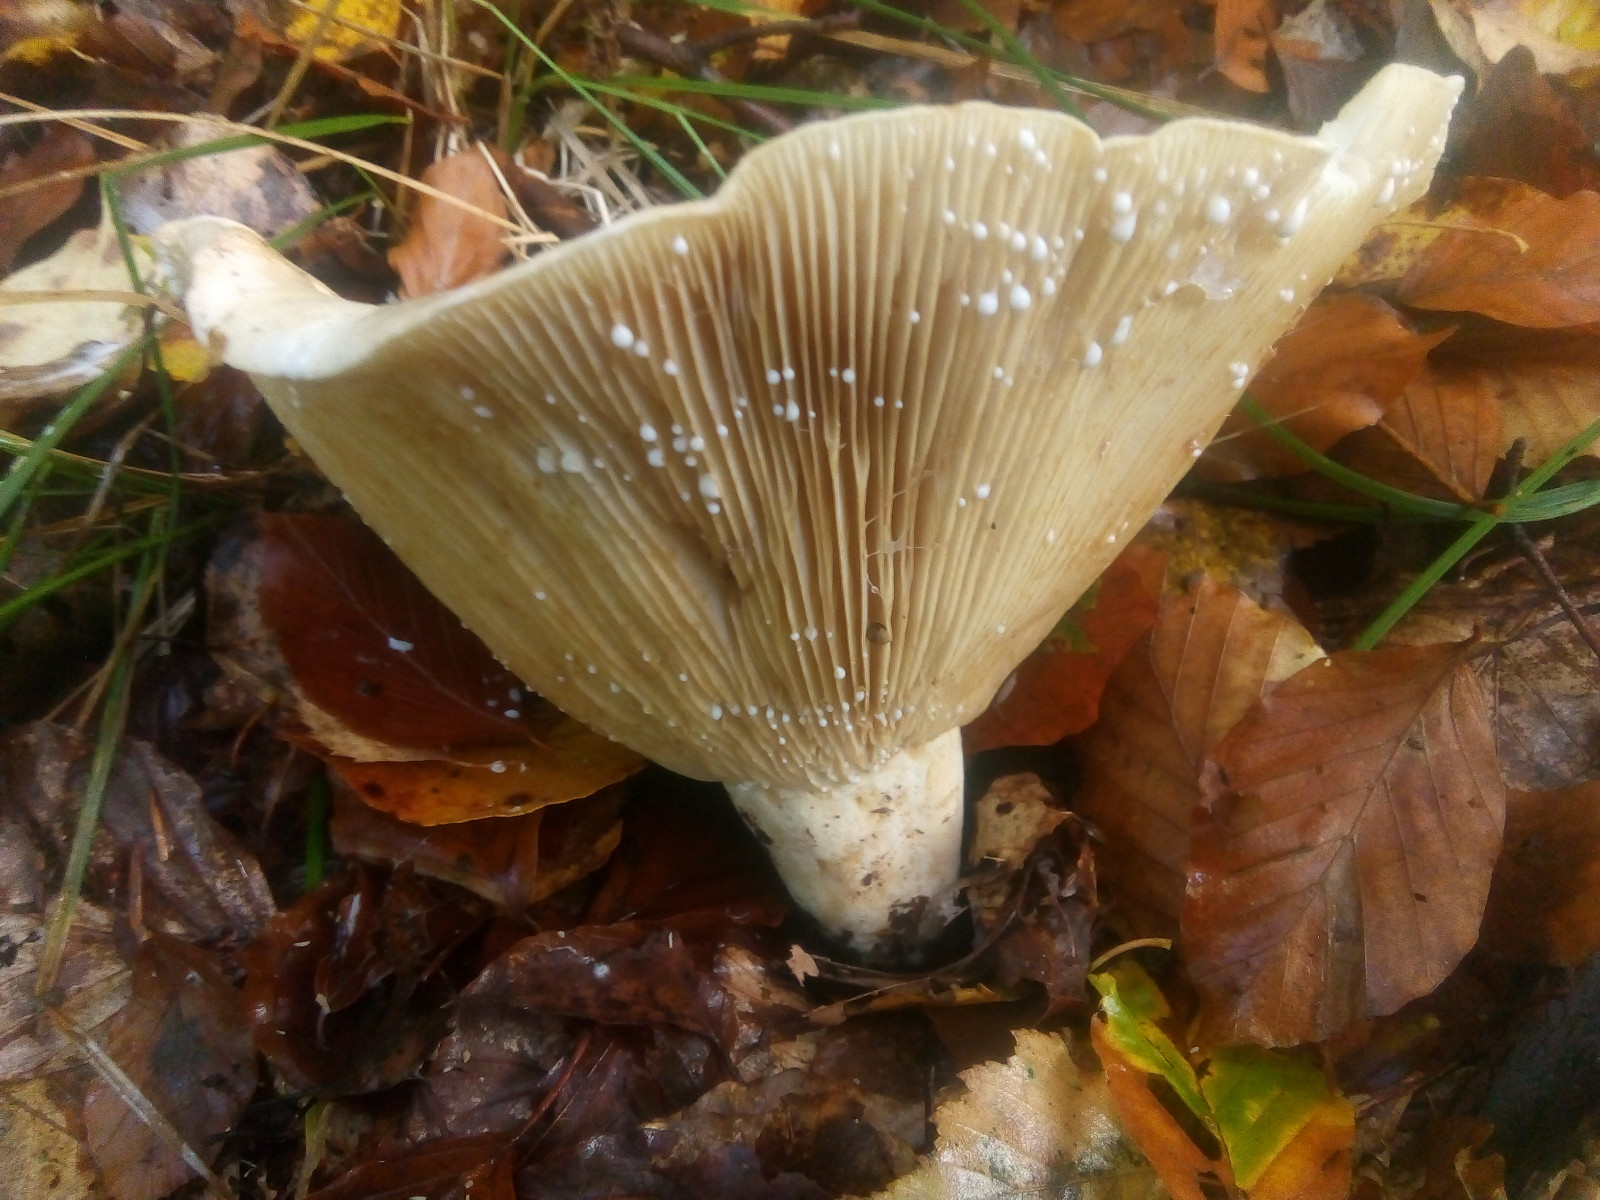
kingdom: Fungi
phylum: Basidiomycota
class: Agaricomycetes
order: Russulales
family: Russulaceae
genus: Lactifluus
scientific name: Lactifluus vellereus
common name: hvidfiltet mælkehat
